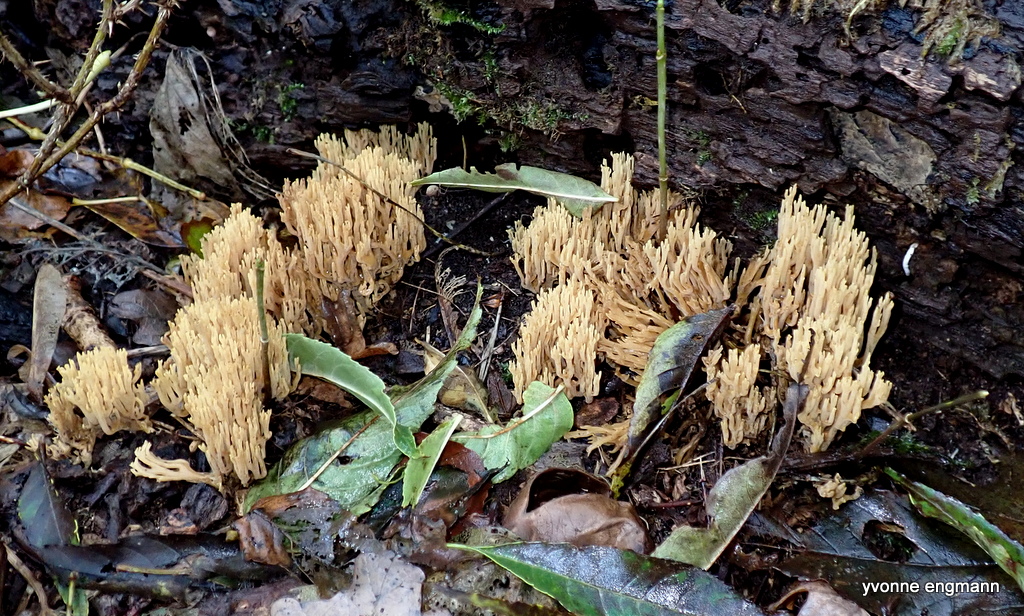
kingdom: Fungi
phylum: Basidiomycota
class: Agaricomycetes
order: Gomphales
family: Gomphaceae
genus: Ramaria
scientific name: Ramaria stricta
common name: rank koralsvamp
